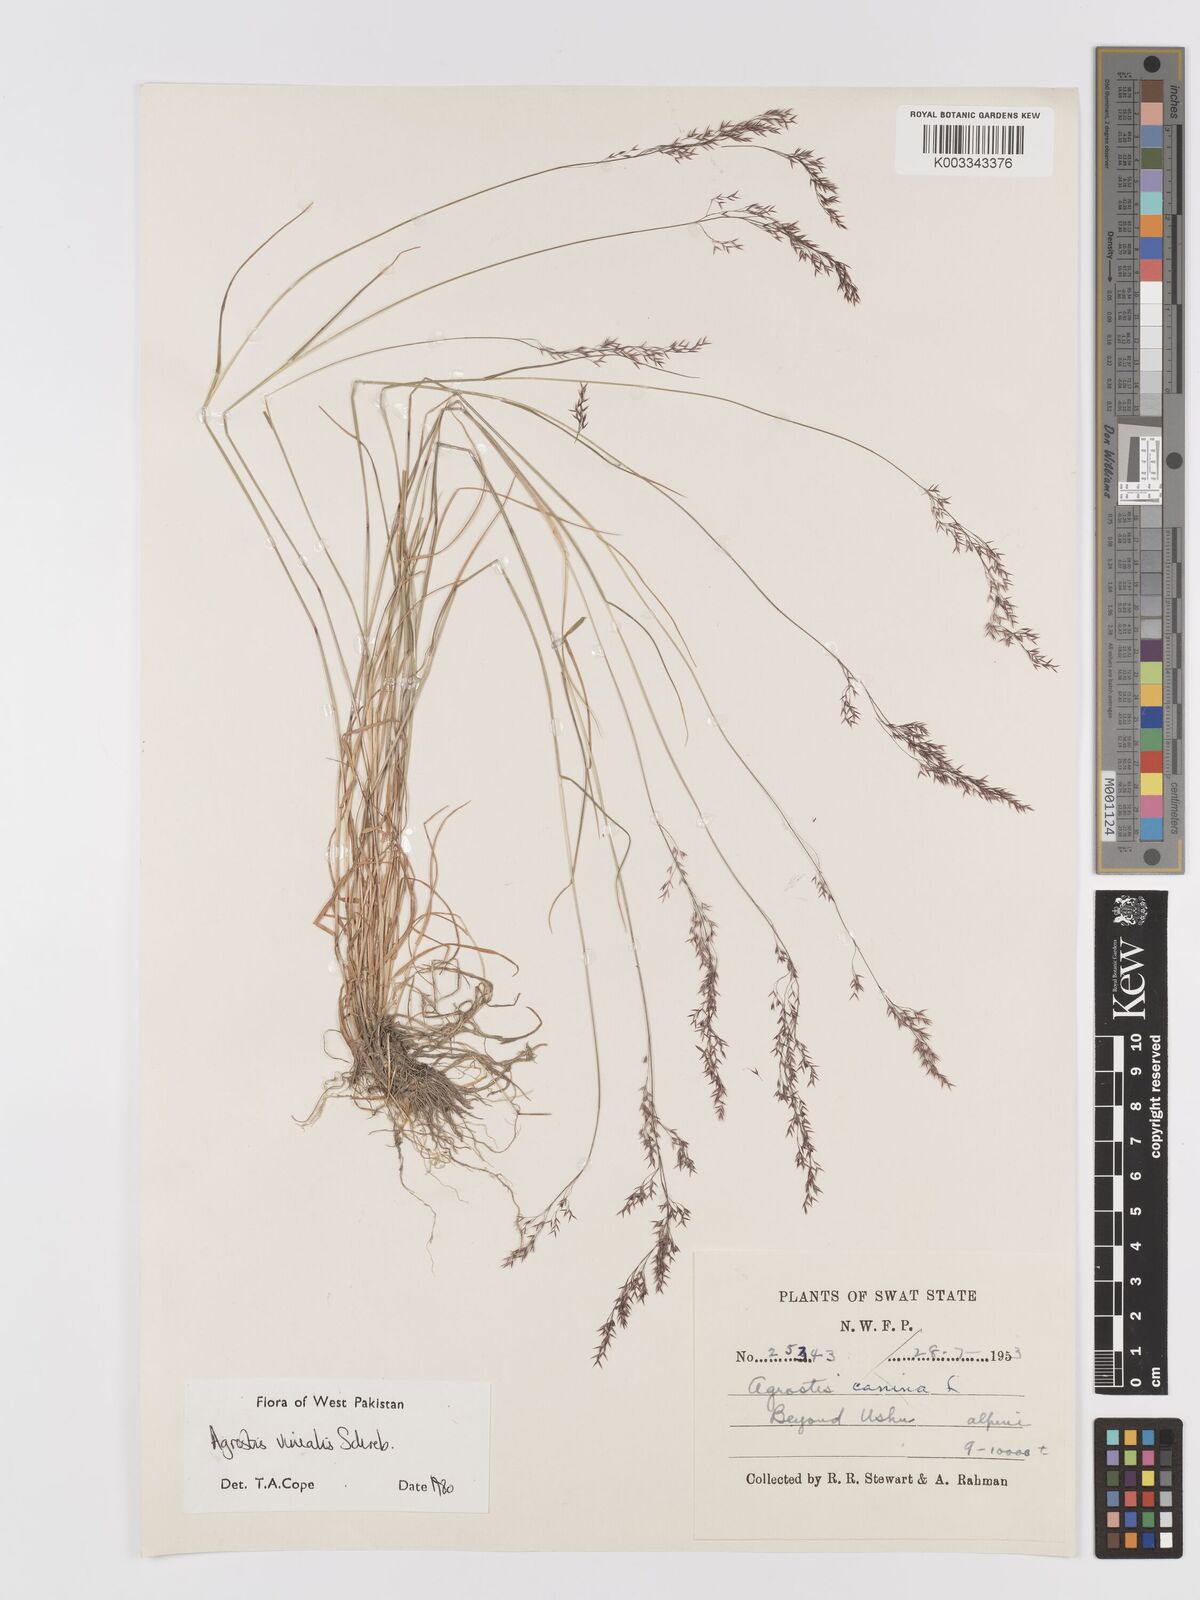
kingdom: Plantae
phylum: Tracheophyta
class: Liliopsida
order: Poales
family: Poaceae
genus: Agrostis
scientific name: Agrostis vinealis
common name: Brown bent
